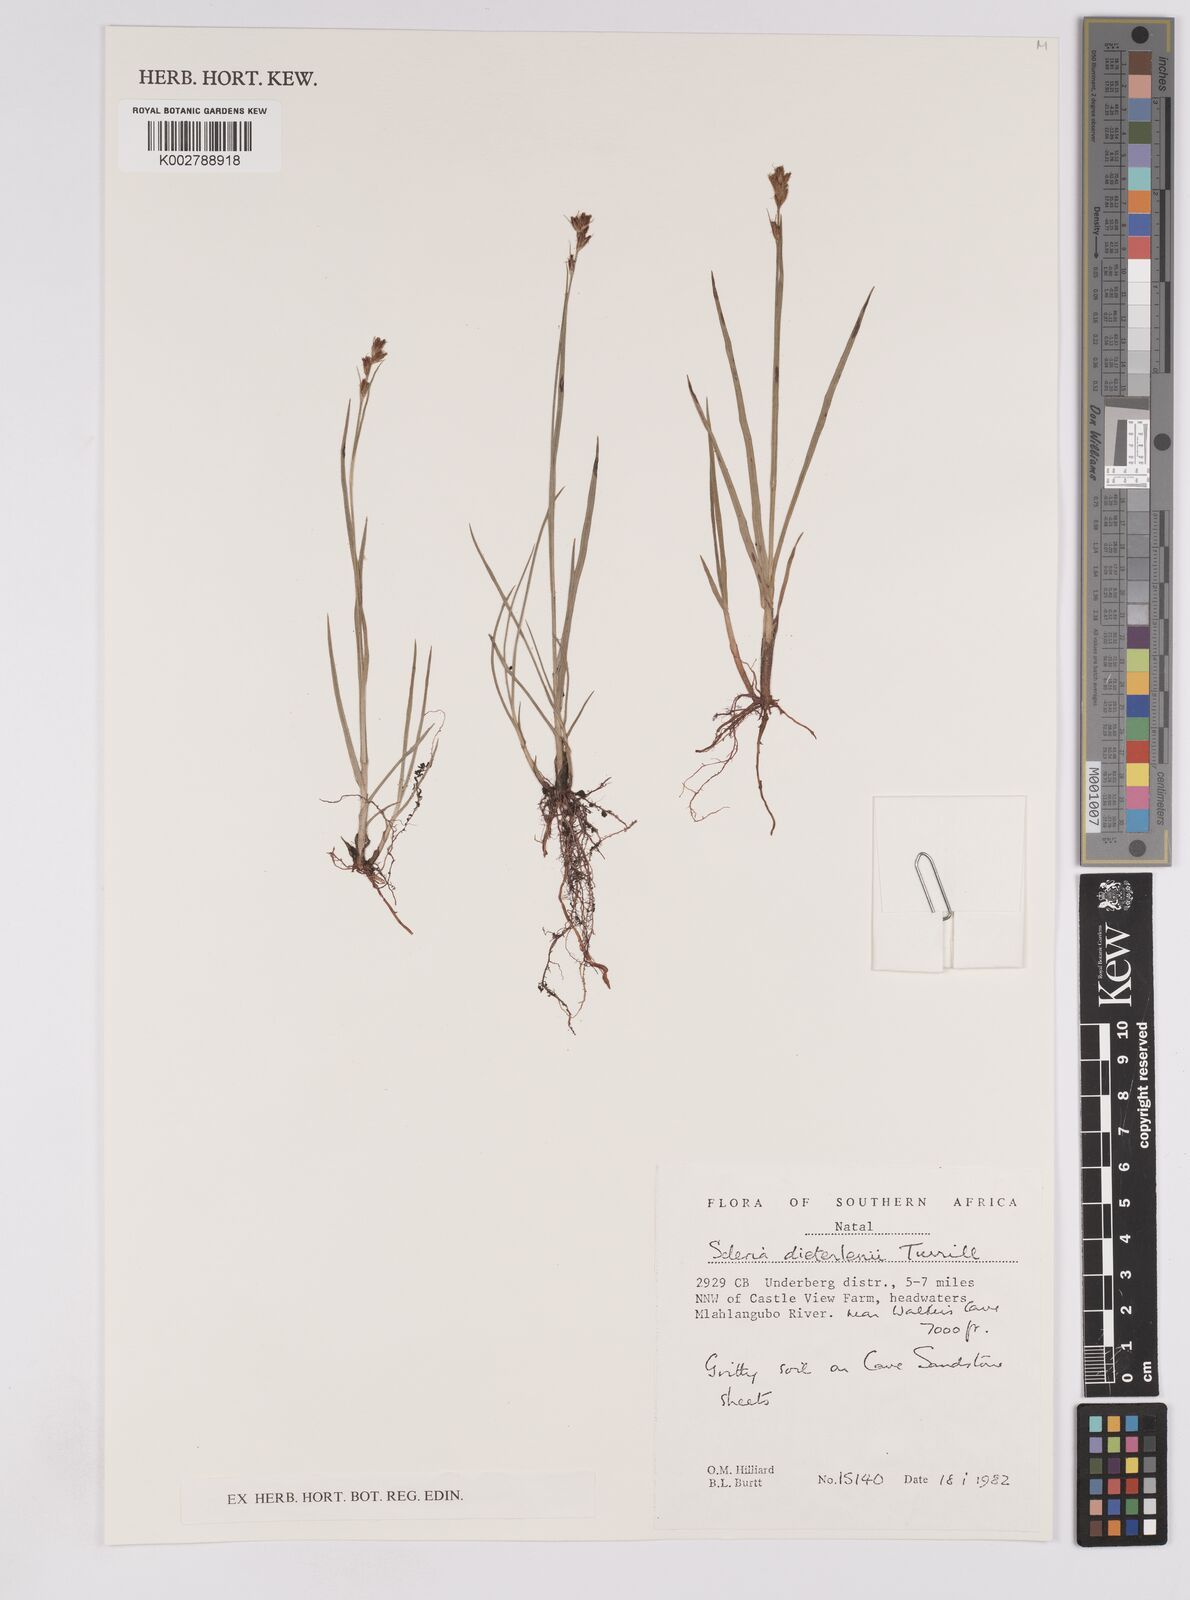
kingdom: Plantae
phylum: Tracheophyta
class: Liliopsida
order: Poales
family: Cyperaceae
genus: Scleria
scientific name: Scleria flexuosa
